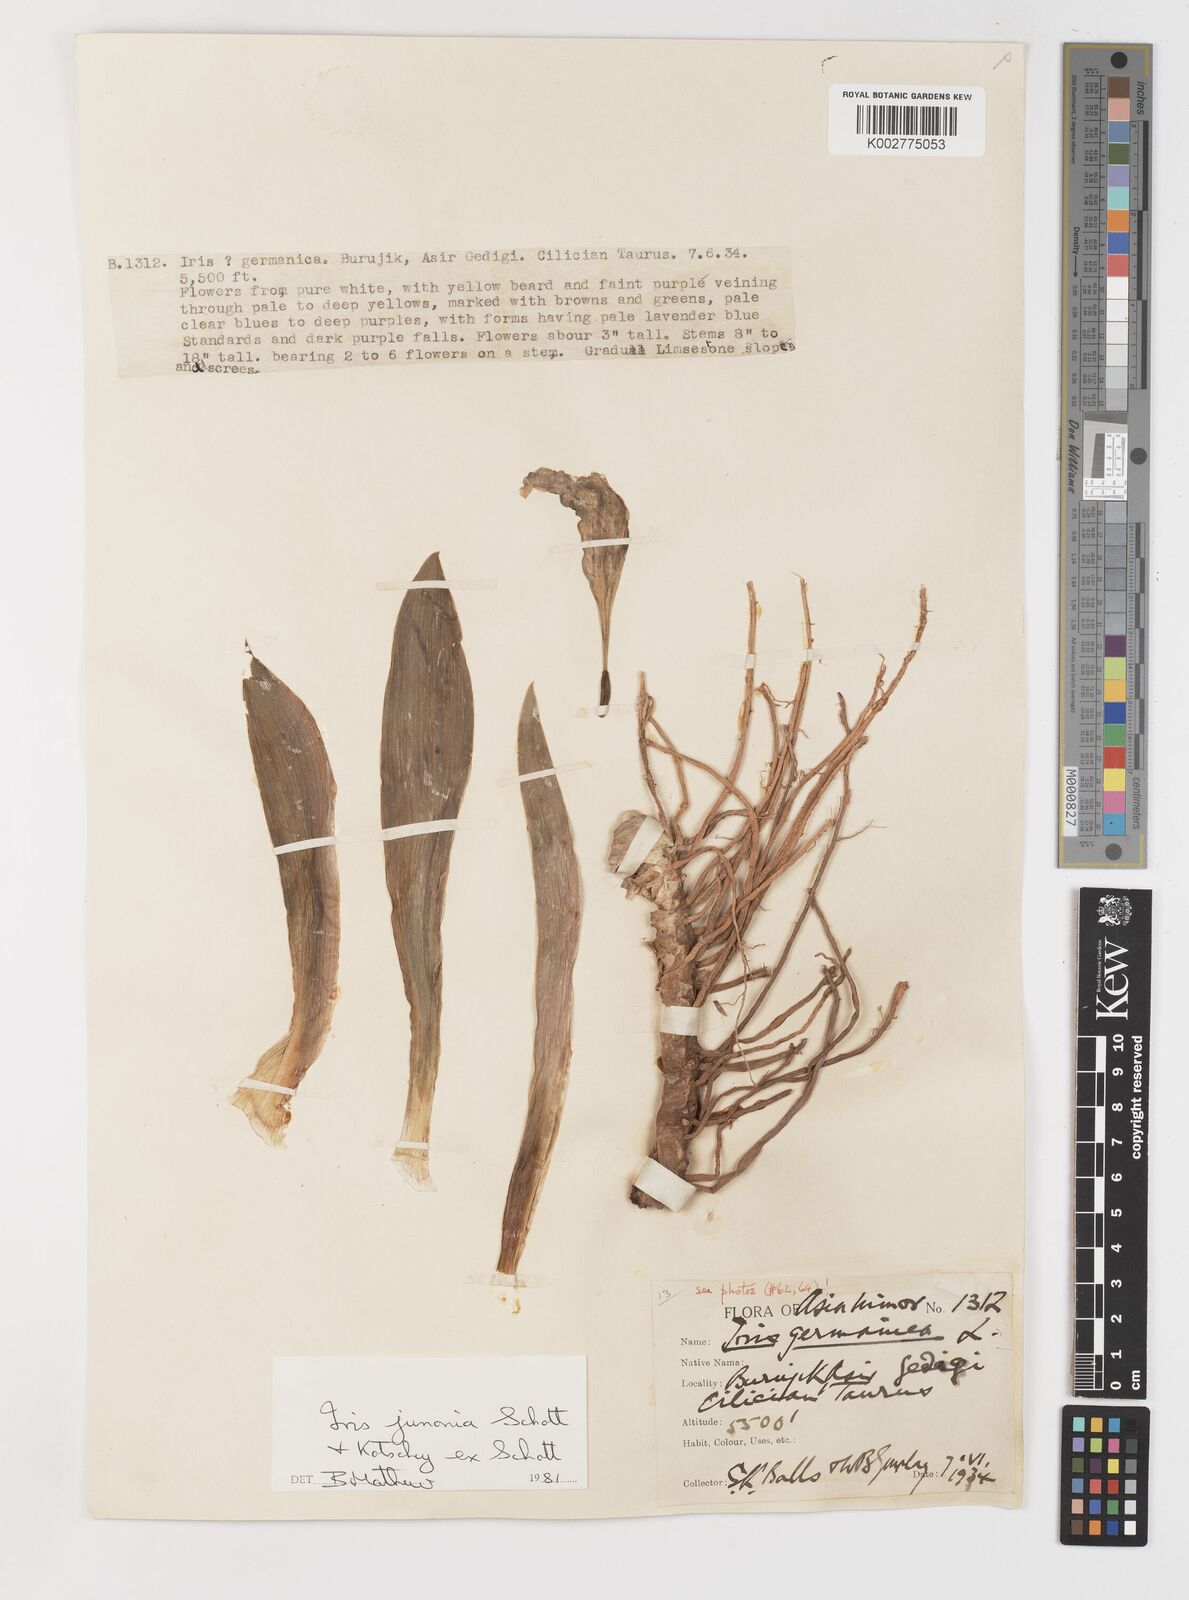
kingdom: Plantae
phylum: Tracheophyta
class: Liliopsida
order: Asparagales
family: Iridaceae
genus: Iris
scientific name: Iris junonia
